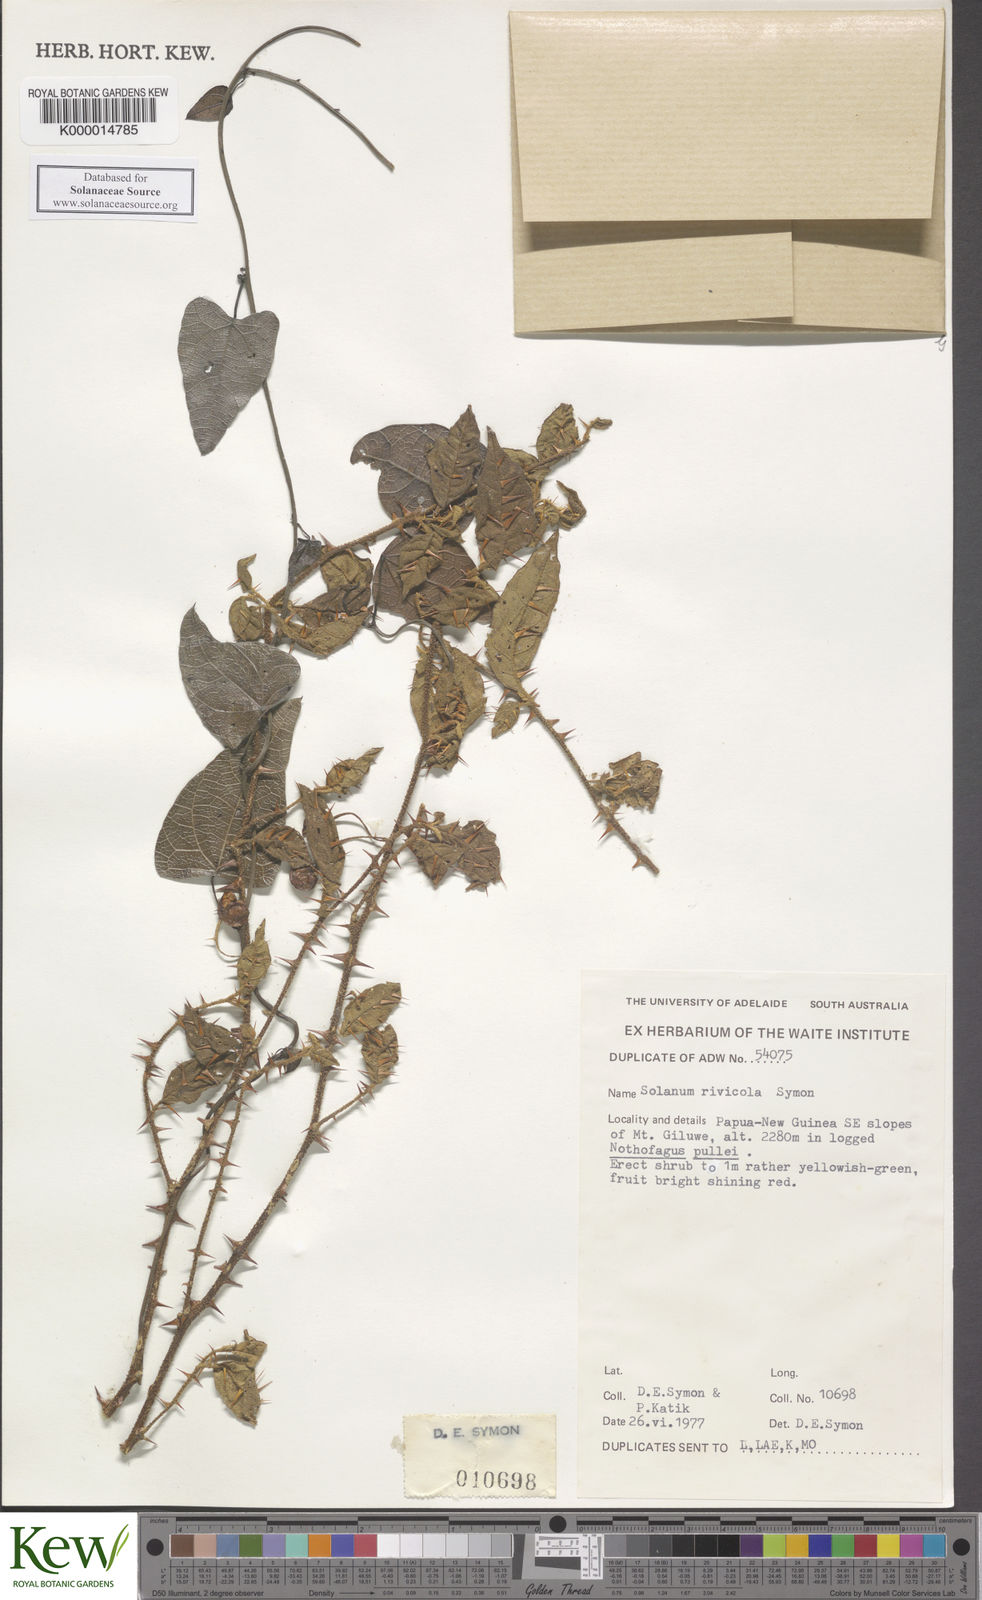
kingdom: Plantae
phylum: Tracheophyta
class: Magnoliopsida
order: Solanales
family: Solanaceae
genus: Solanum
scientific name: Solanum rivicola
